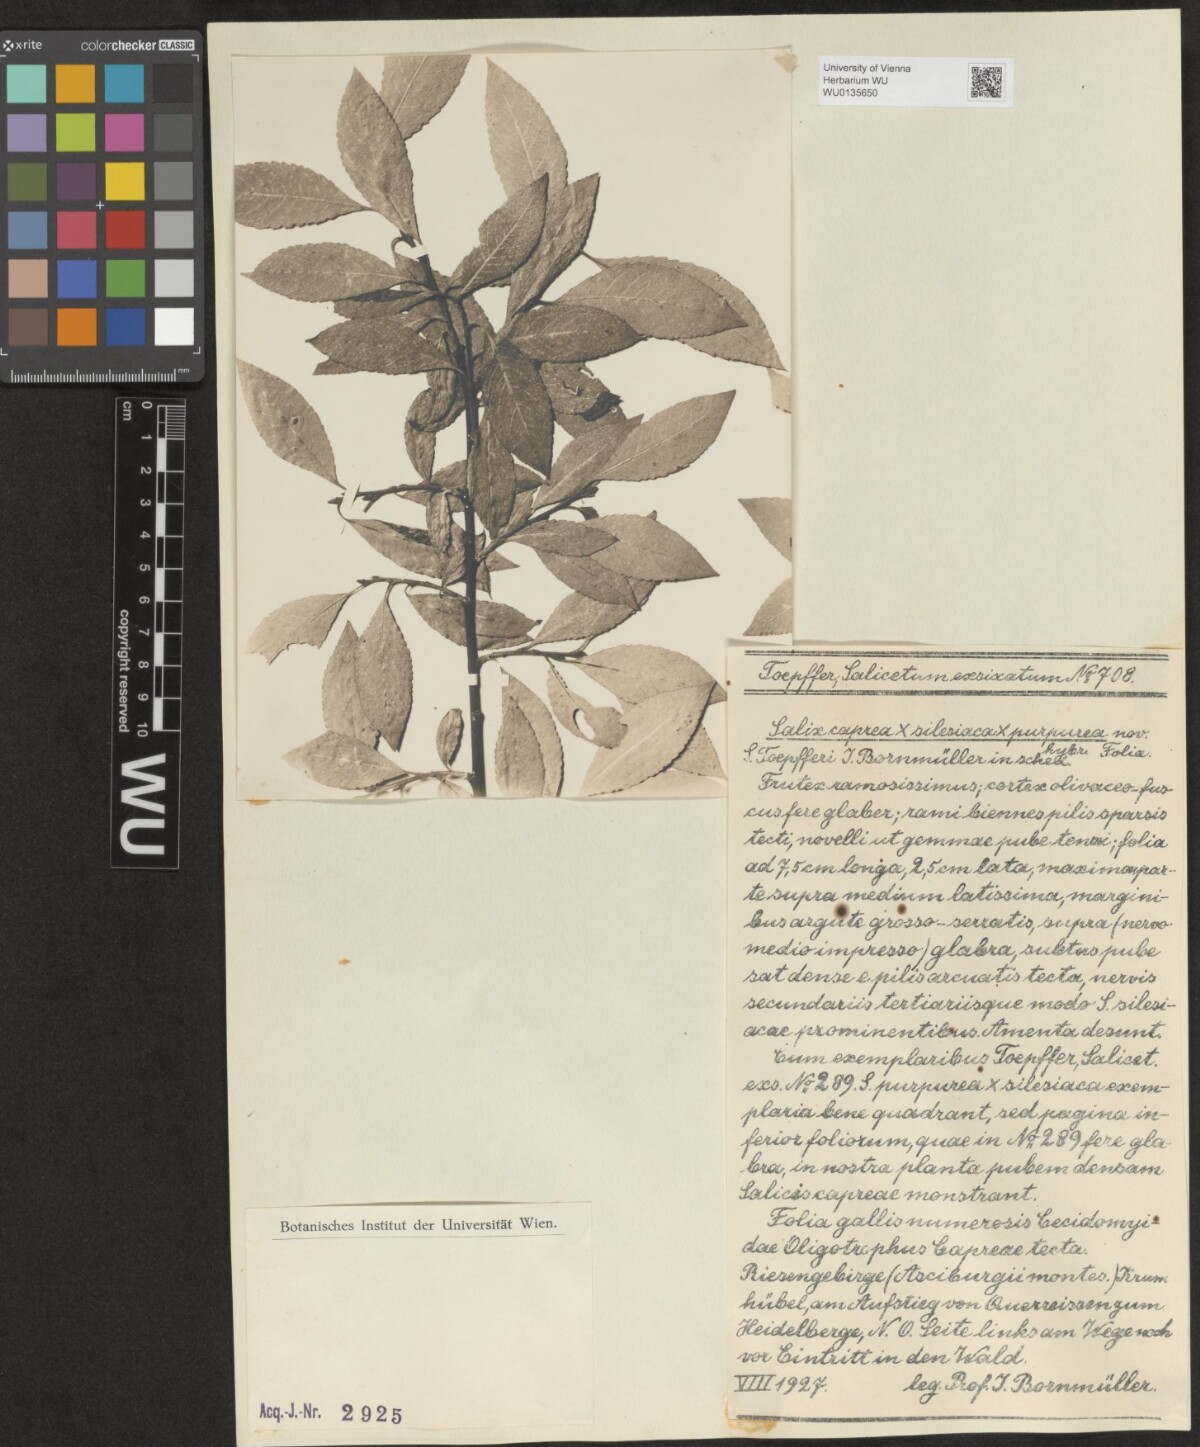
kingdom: Plantae
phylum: Tracheophyta
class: Magnoliopsida
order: Malpighiales
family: Salicaceae
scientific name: Salicaceae
